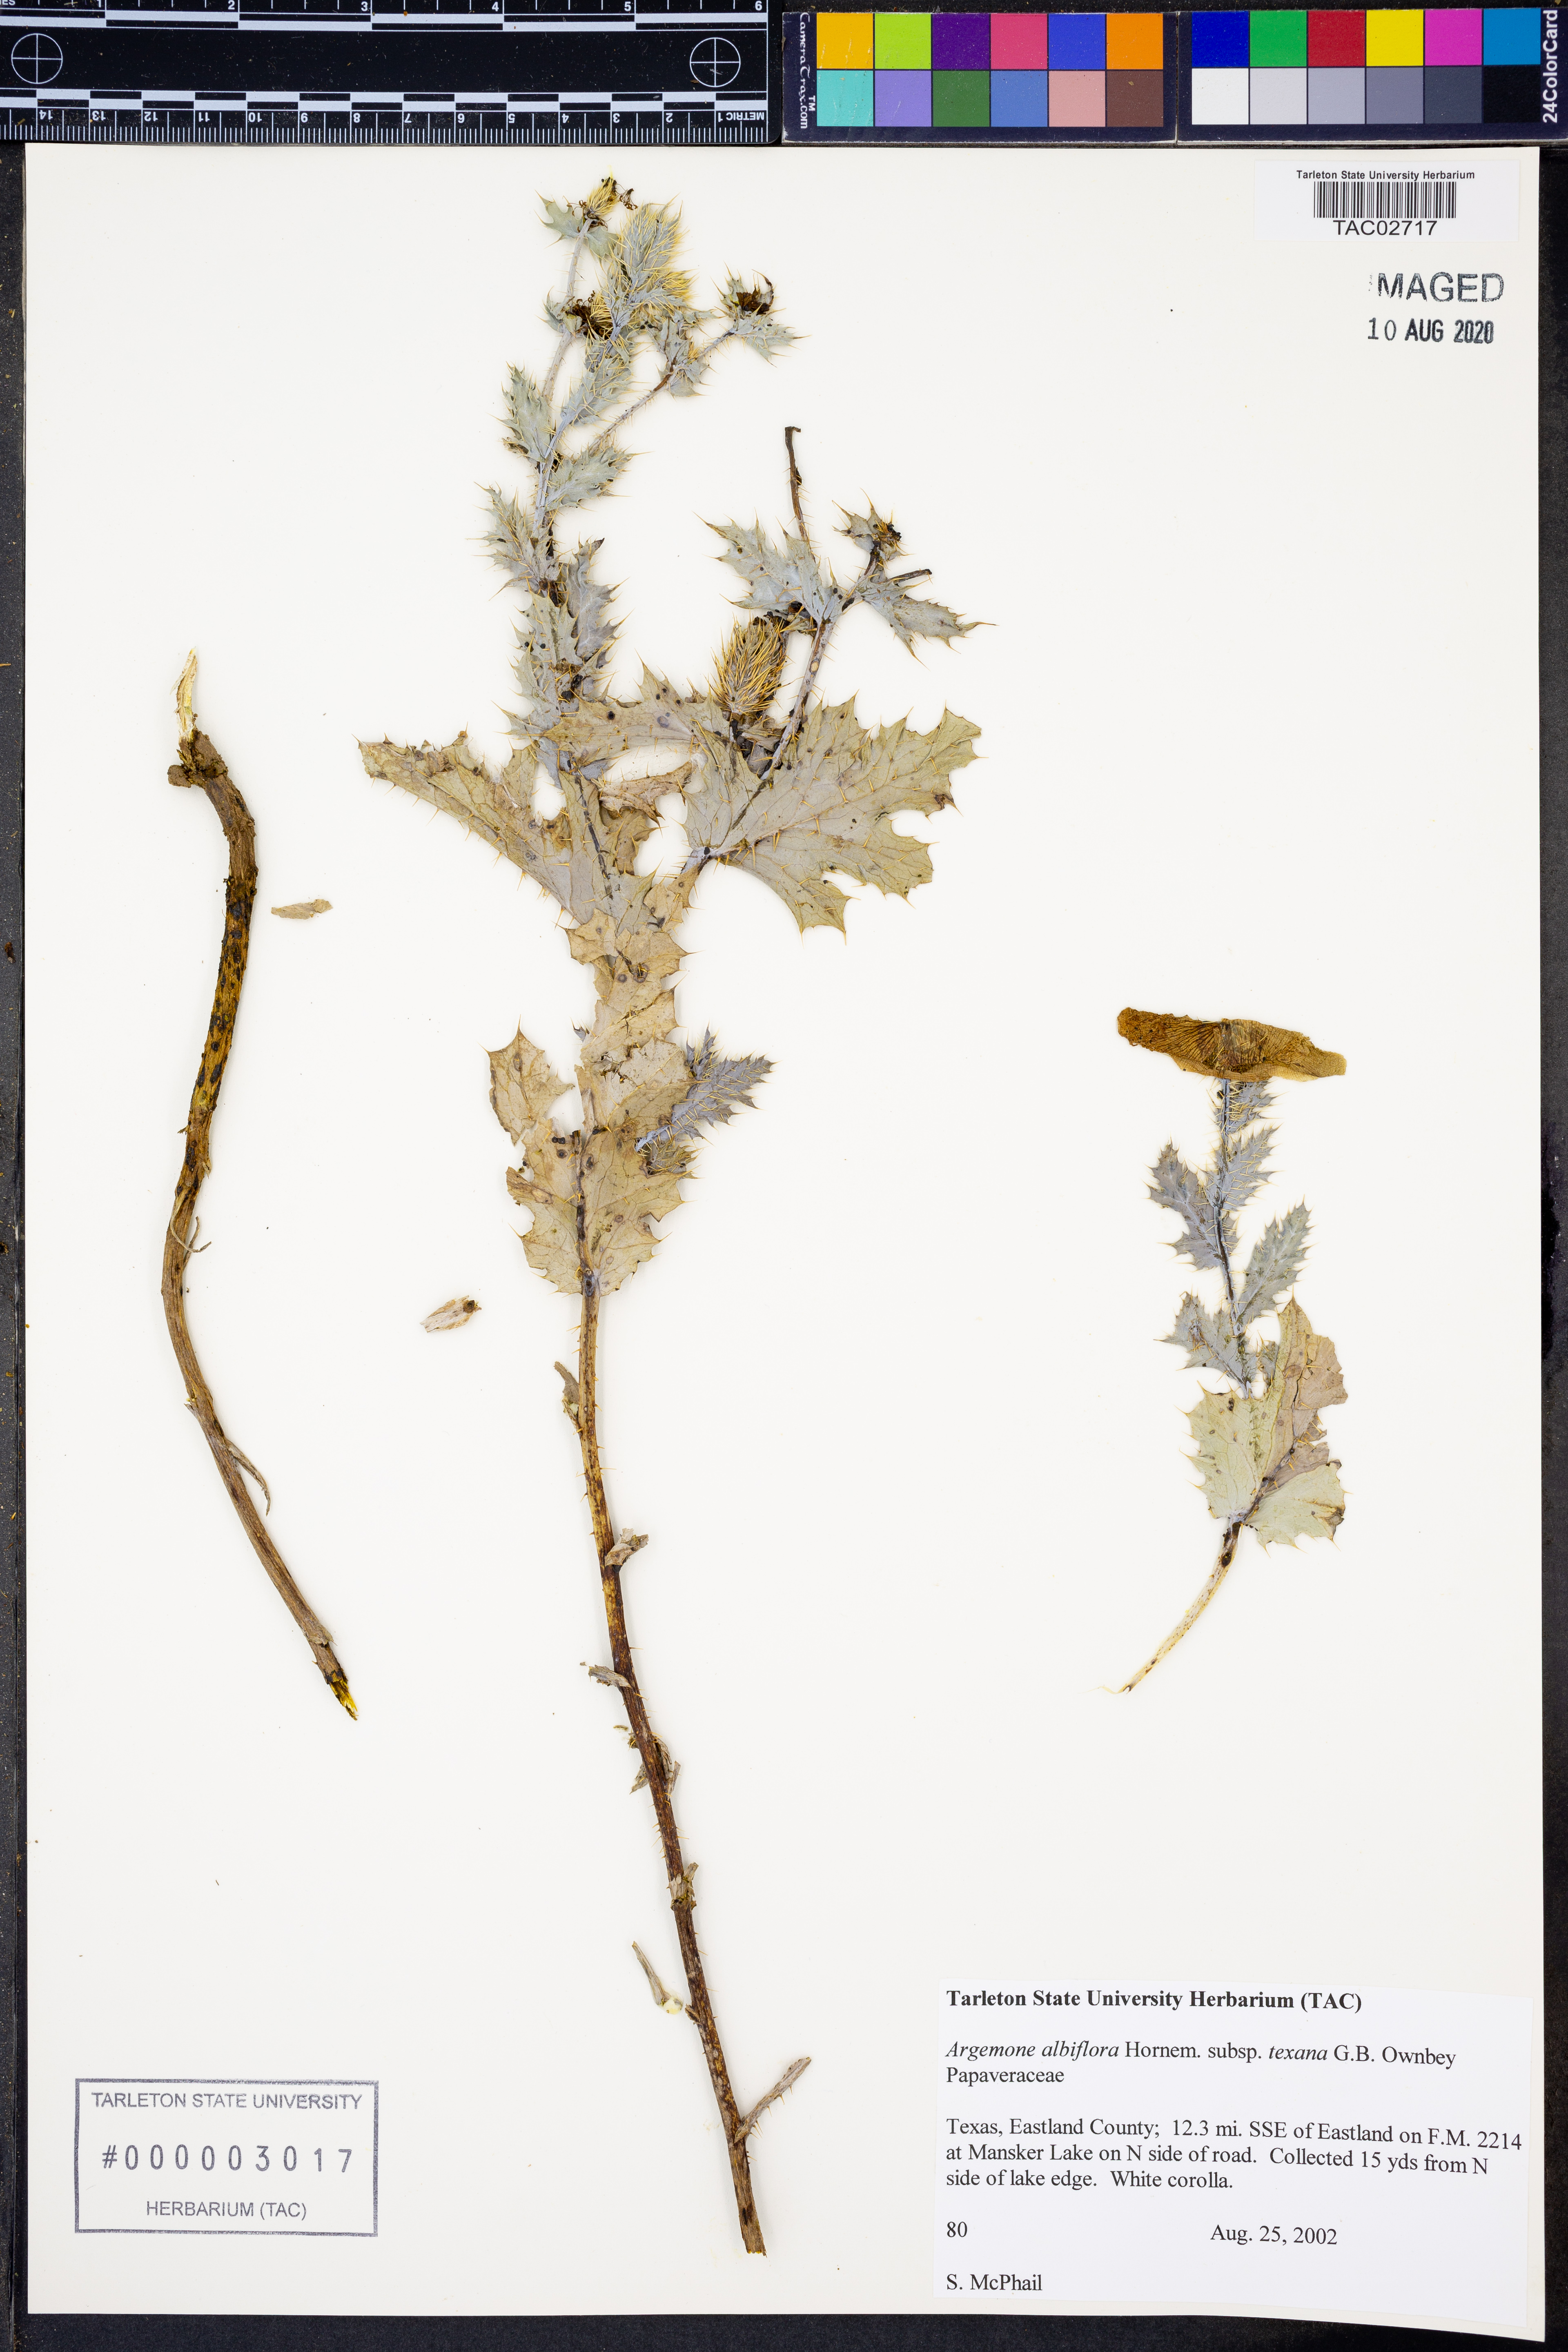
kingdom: Plantae
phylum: Tracheophyta
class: Magnoliopsida
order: Ranunculales
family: Papaveraceae
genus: Argemone
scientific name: Argemone albiflora
